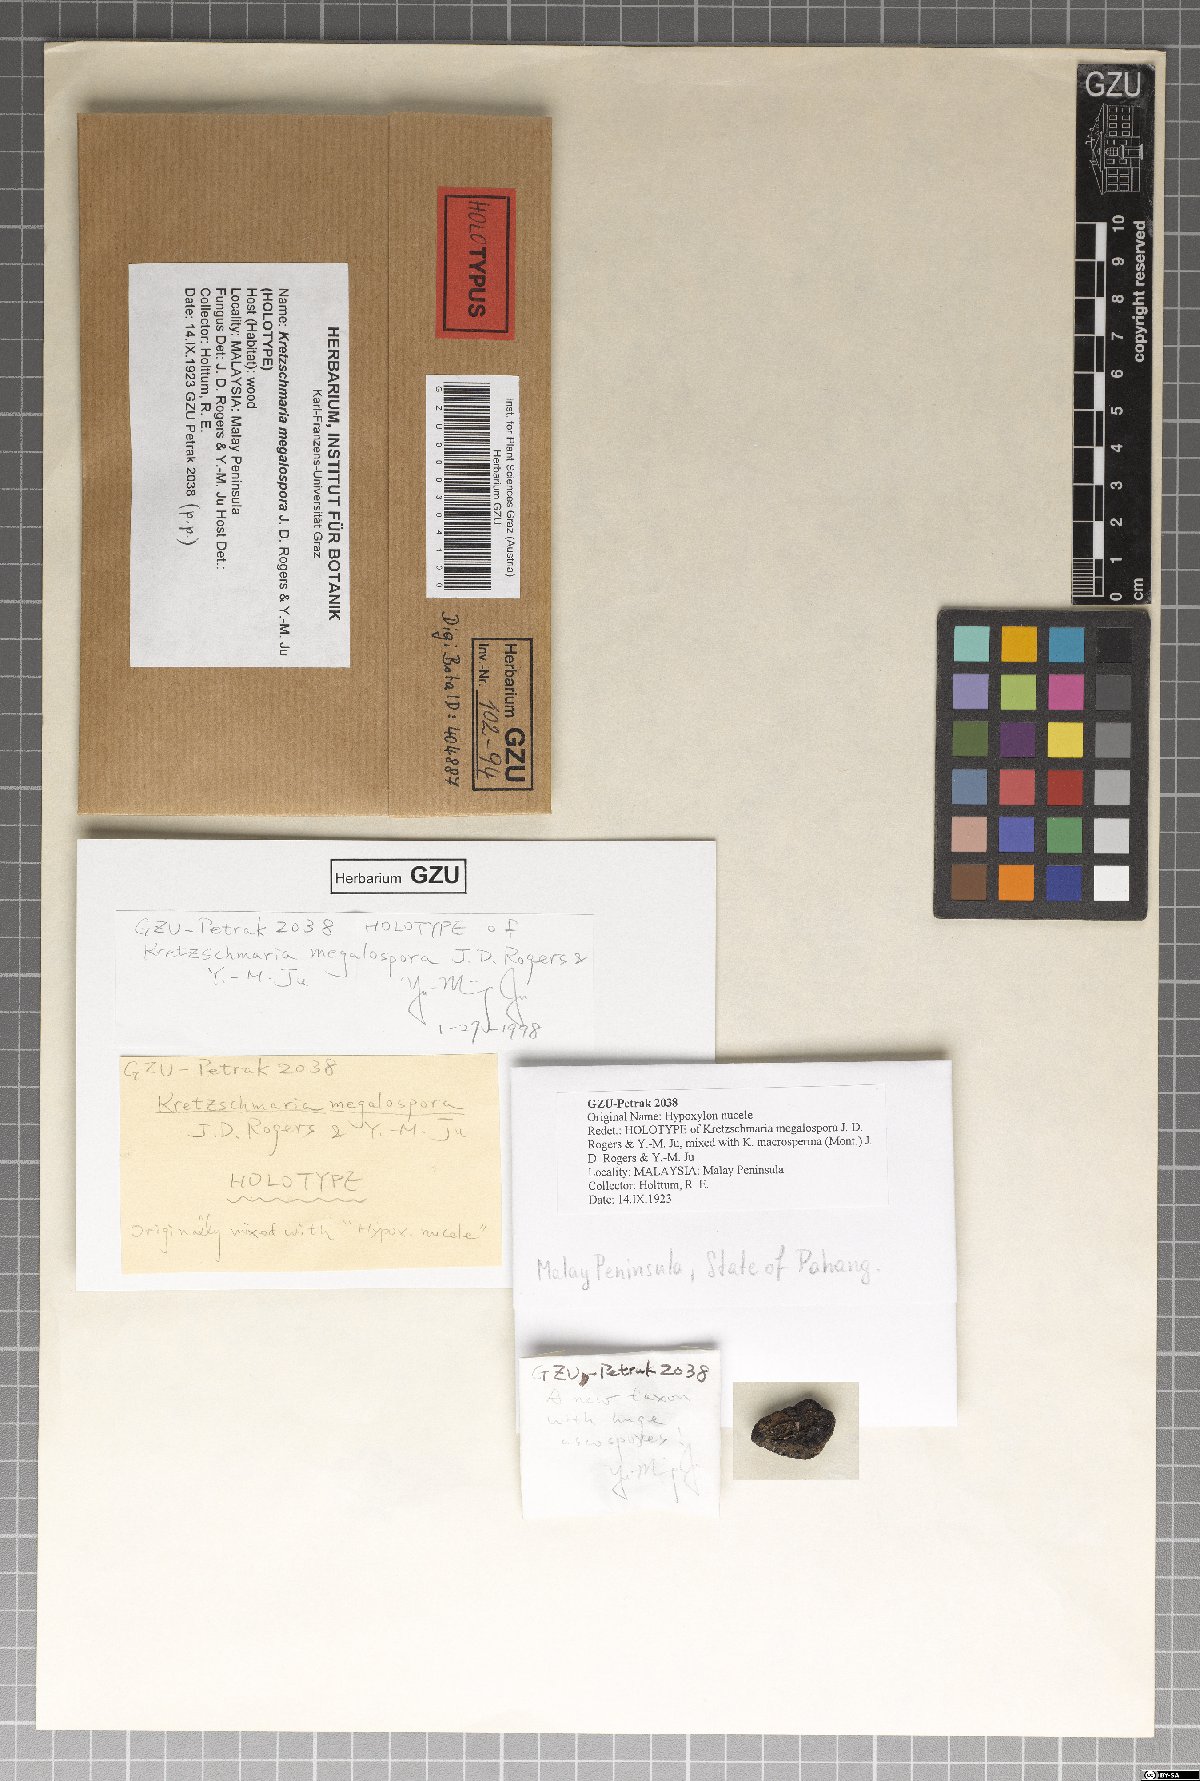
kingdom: Fungi
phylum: Ascomycota
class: Sordariomycetes
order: Xylariales
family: Xylariaceae
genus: Kretzschmaria
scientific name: Kretzschmaria megalospora
